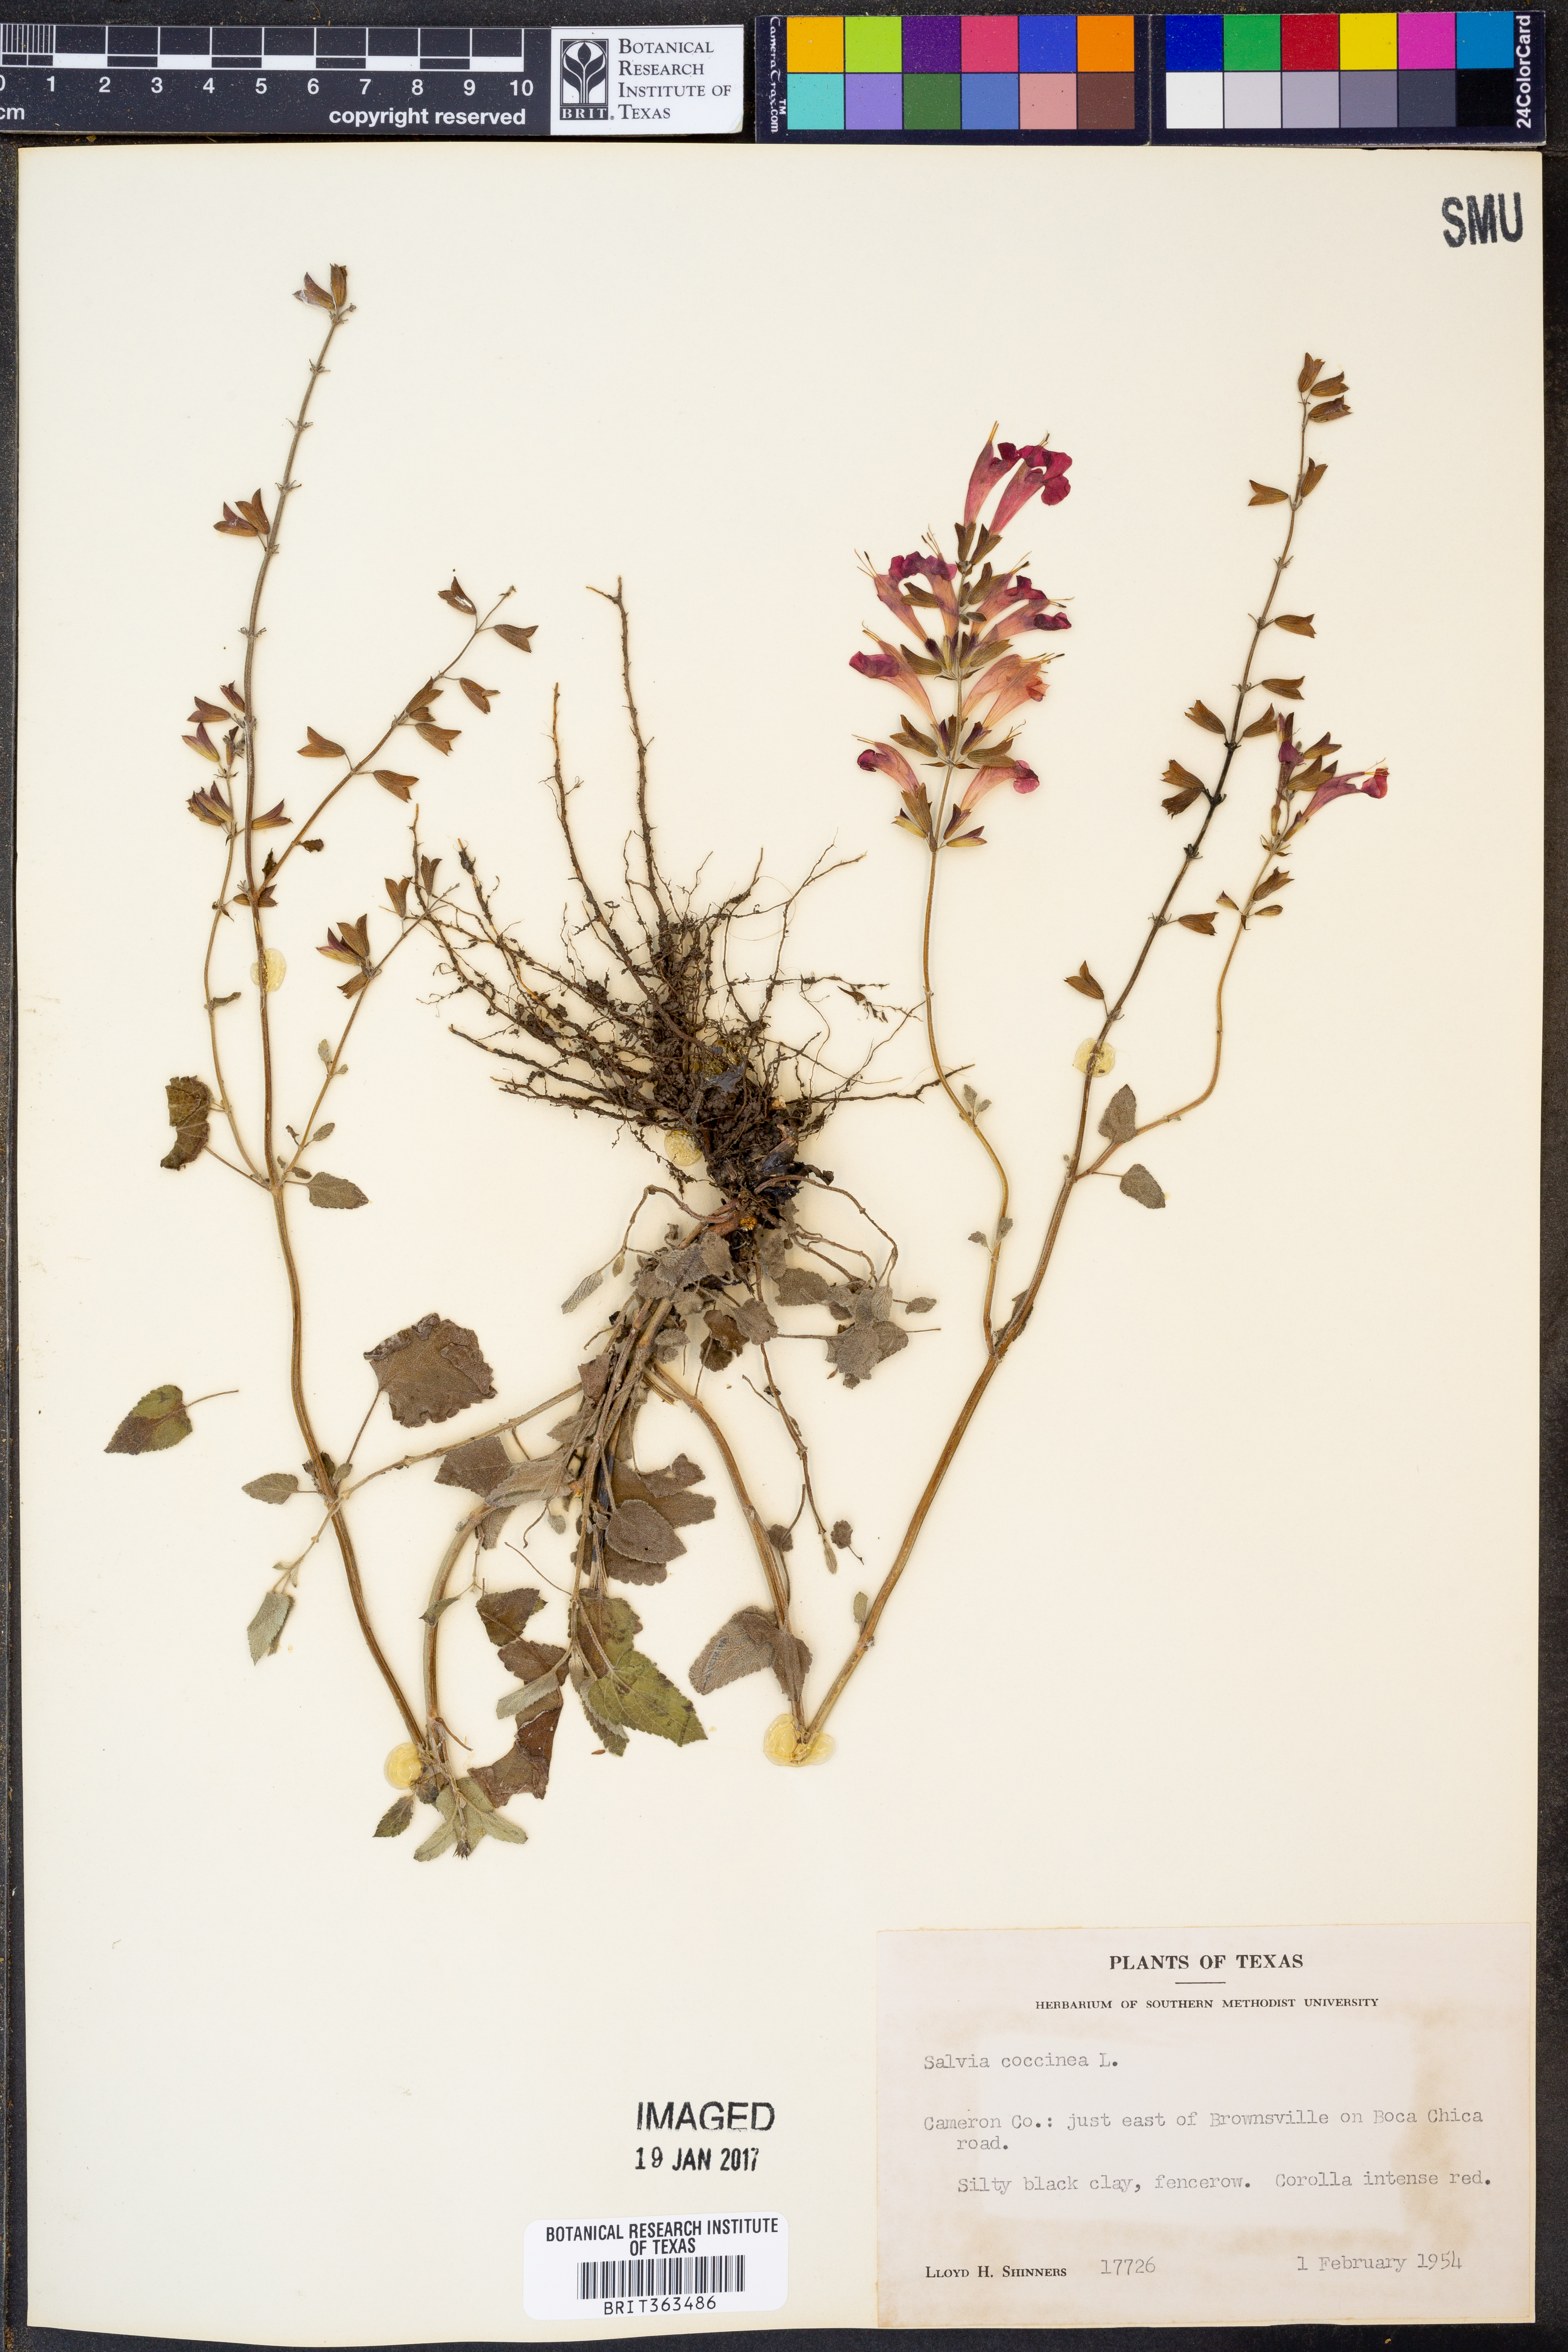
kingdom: Plantae
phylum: Tracheophyta
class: Magnoliopsida
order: Lamiales
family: Lamiaceae
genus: Salvia
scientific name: Salvia coccinea
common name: Blood sage
